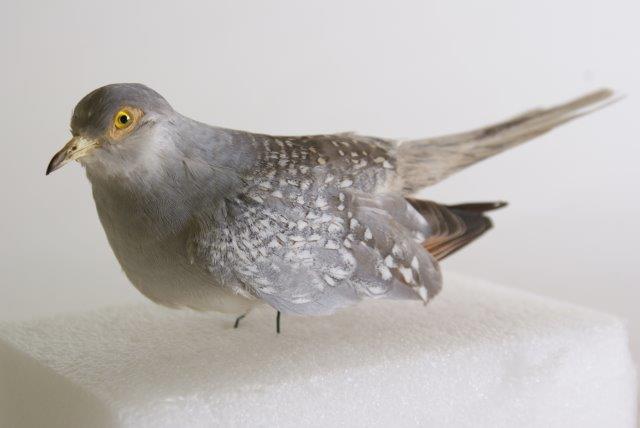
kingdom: Animalia
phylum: Chordata
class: Aves
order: Columbiformes
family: Columbidae
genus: Geopelia
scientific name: Geopelia cuneata
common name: Diamond dove
